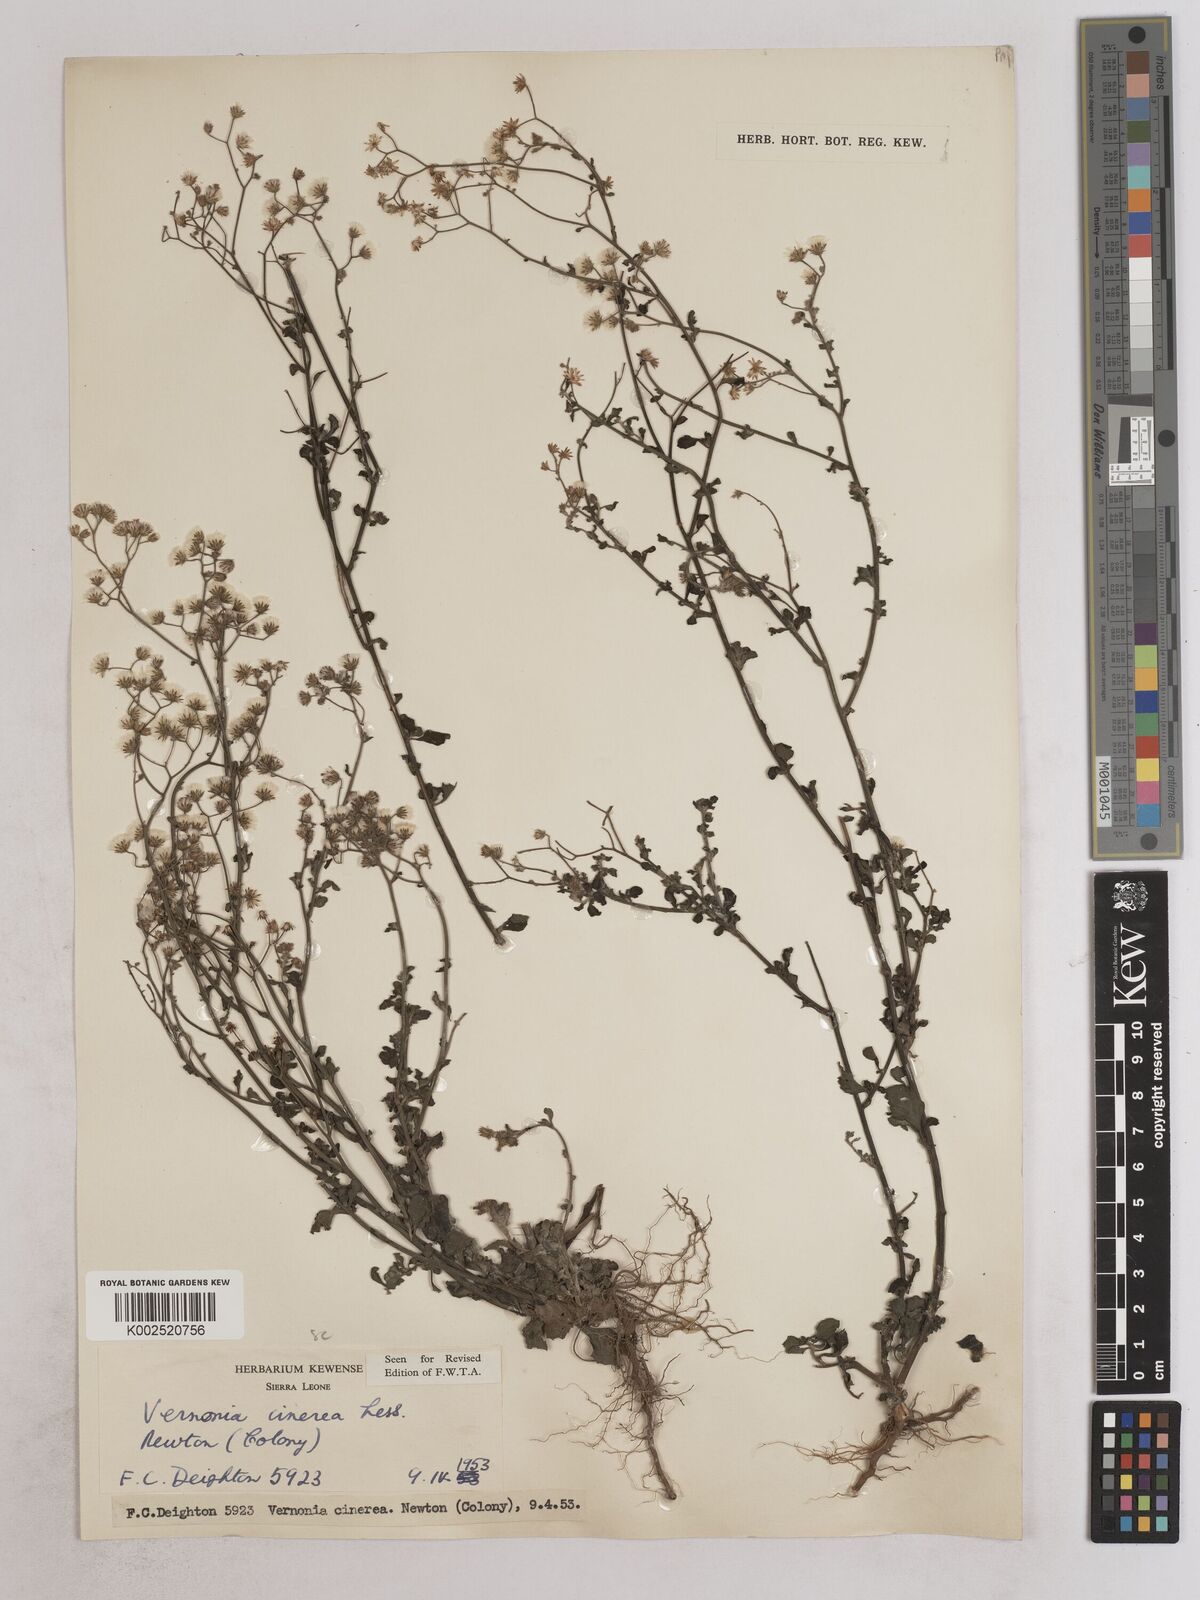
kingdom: Plantae
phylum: Tracheophyta
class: Magnoliopsida
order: Asterales
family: Asteraceae
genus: Cyanthillium
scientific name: Cyanthillium cinereum
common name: Little ironweed
